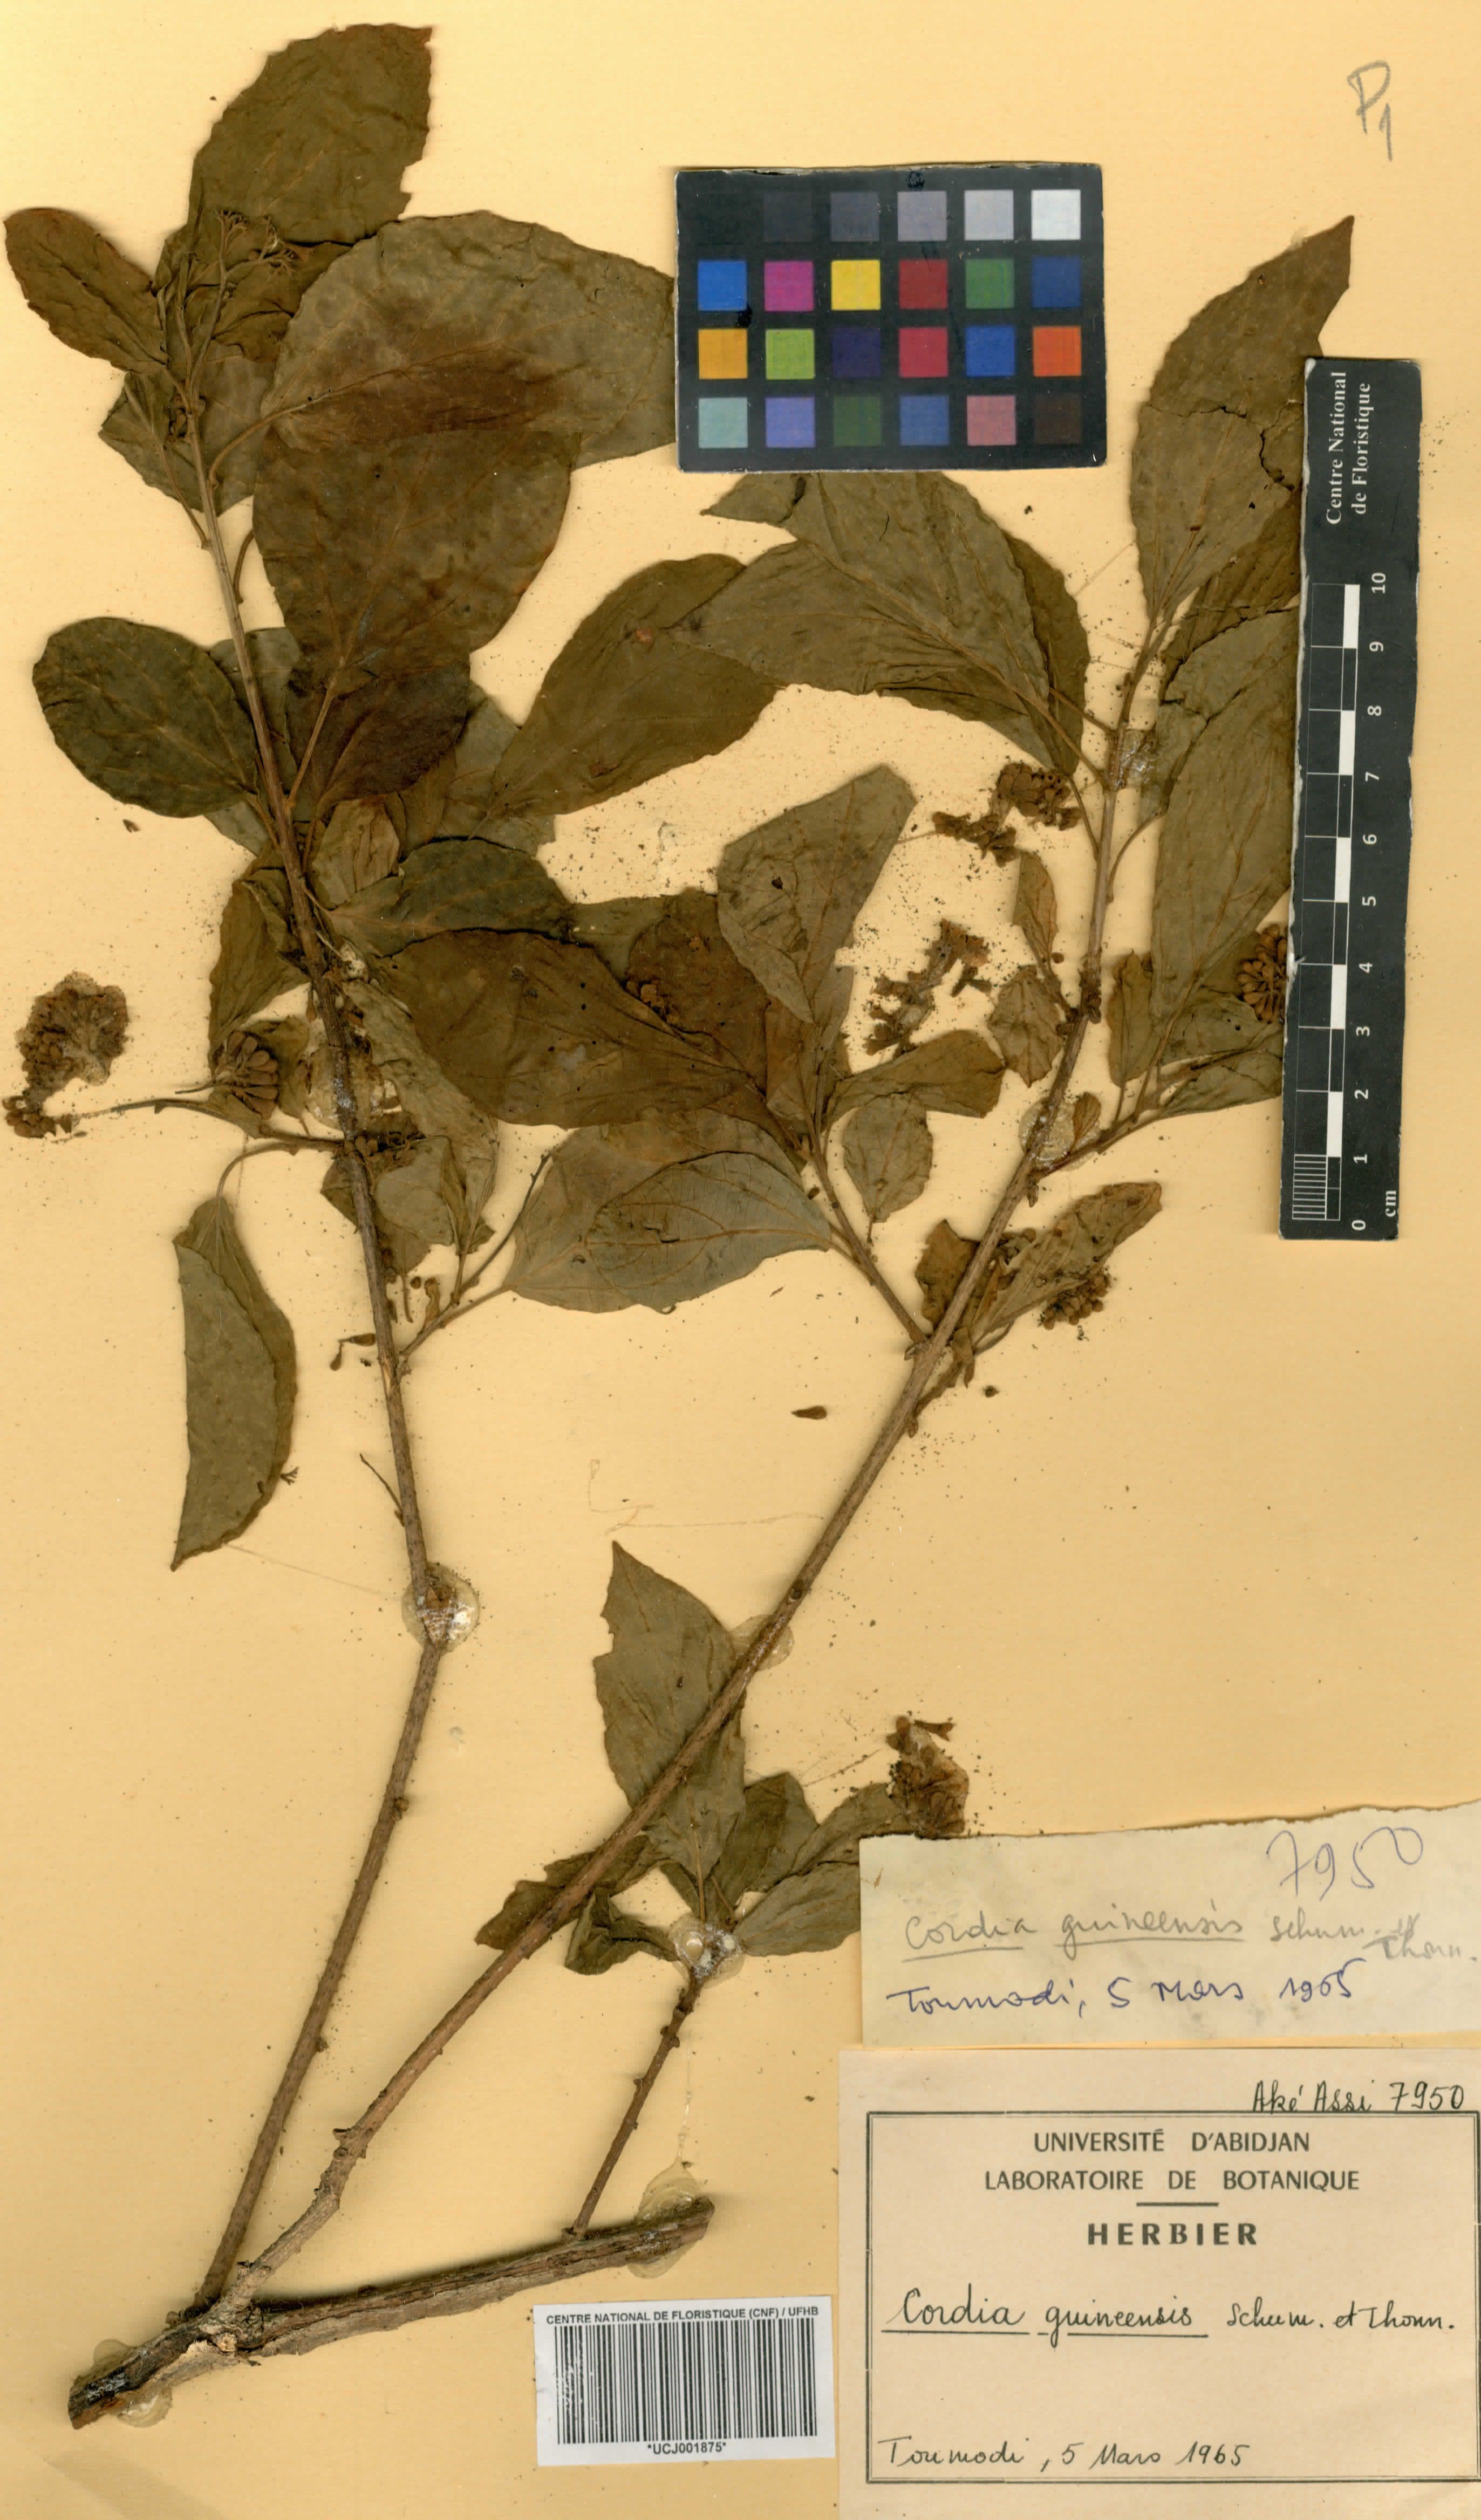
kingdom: Plantae
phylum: Tracheophyta
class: Magnoliopsida
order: Boraginales
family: Cordiaceae
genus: Cordia
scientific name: Cordia guineensis
